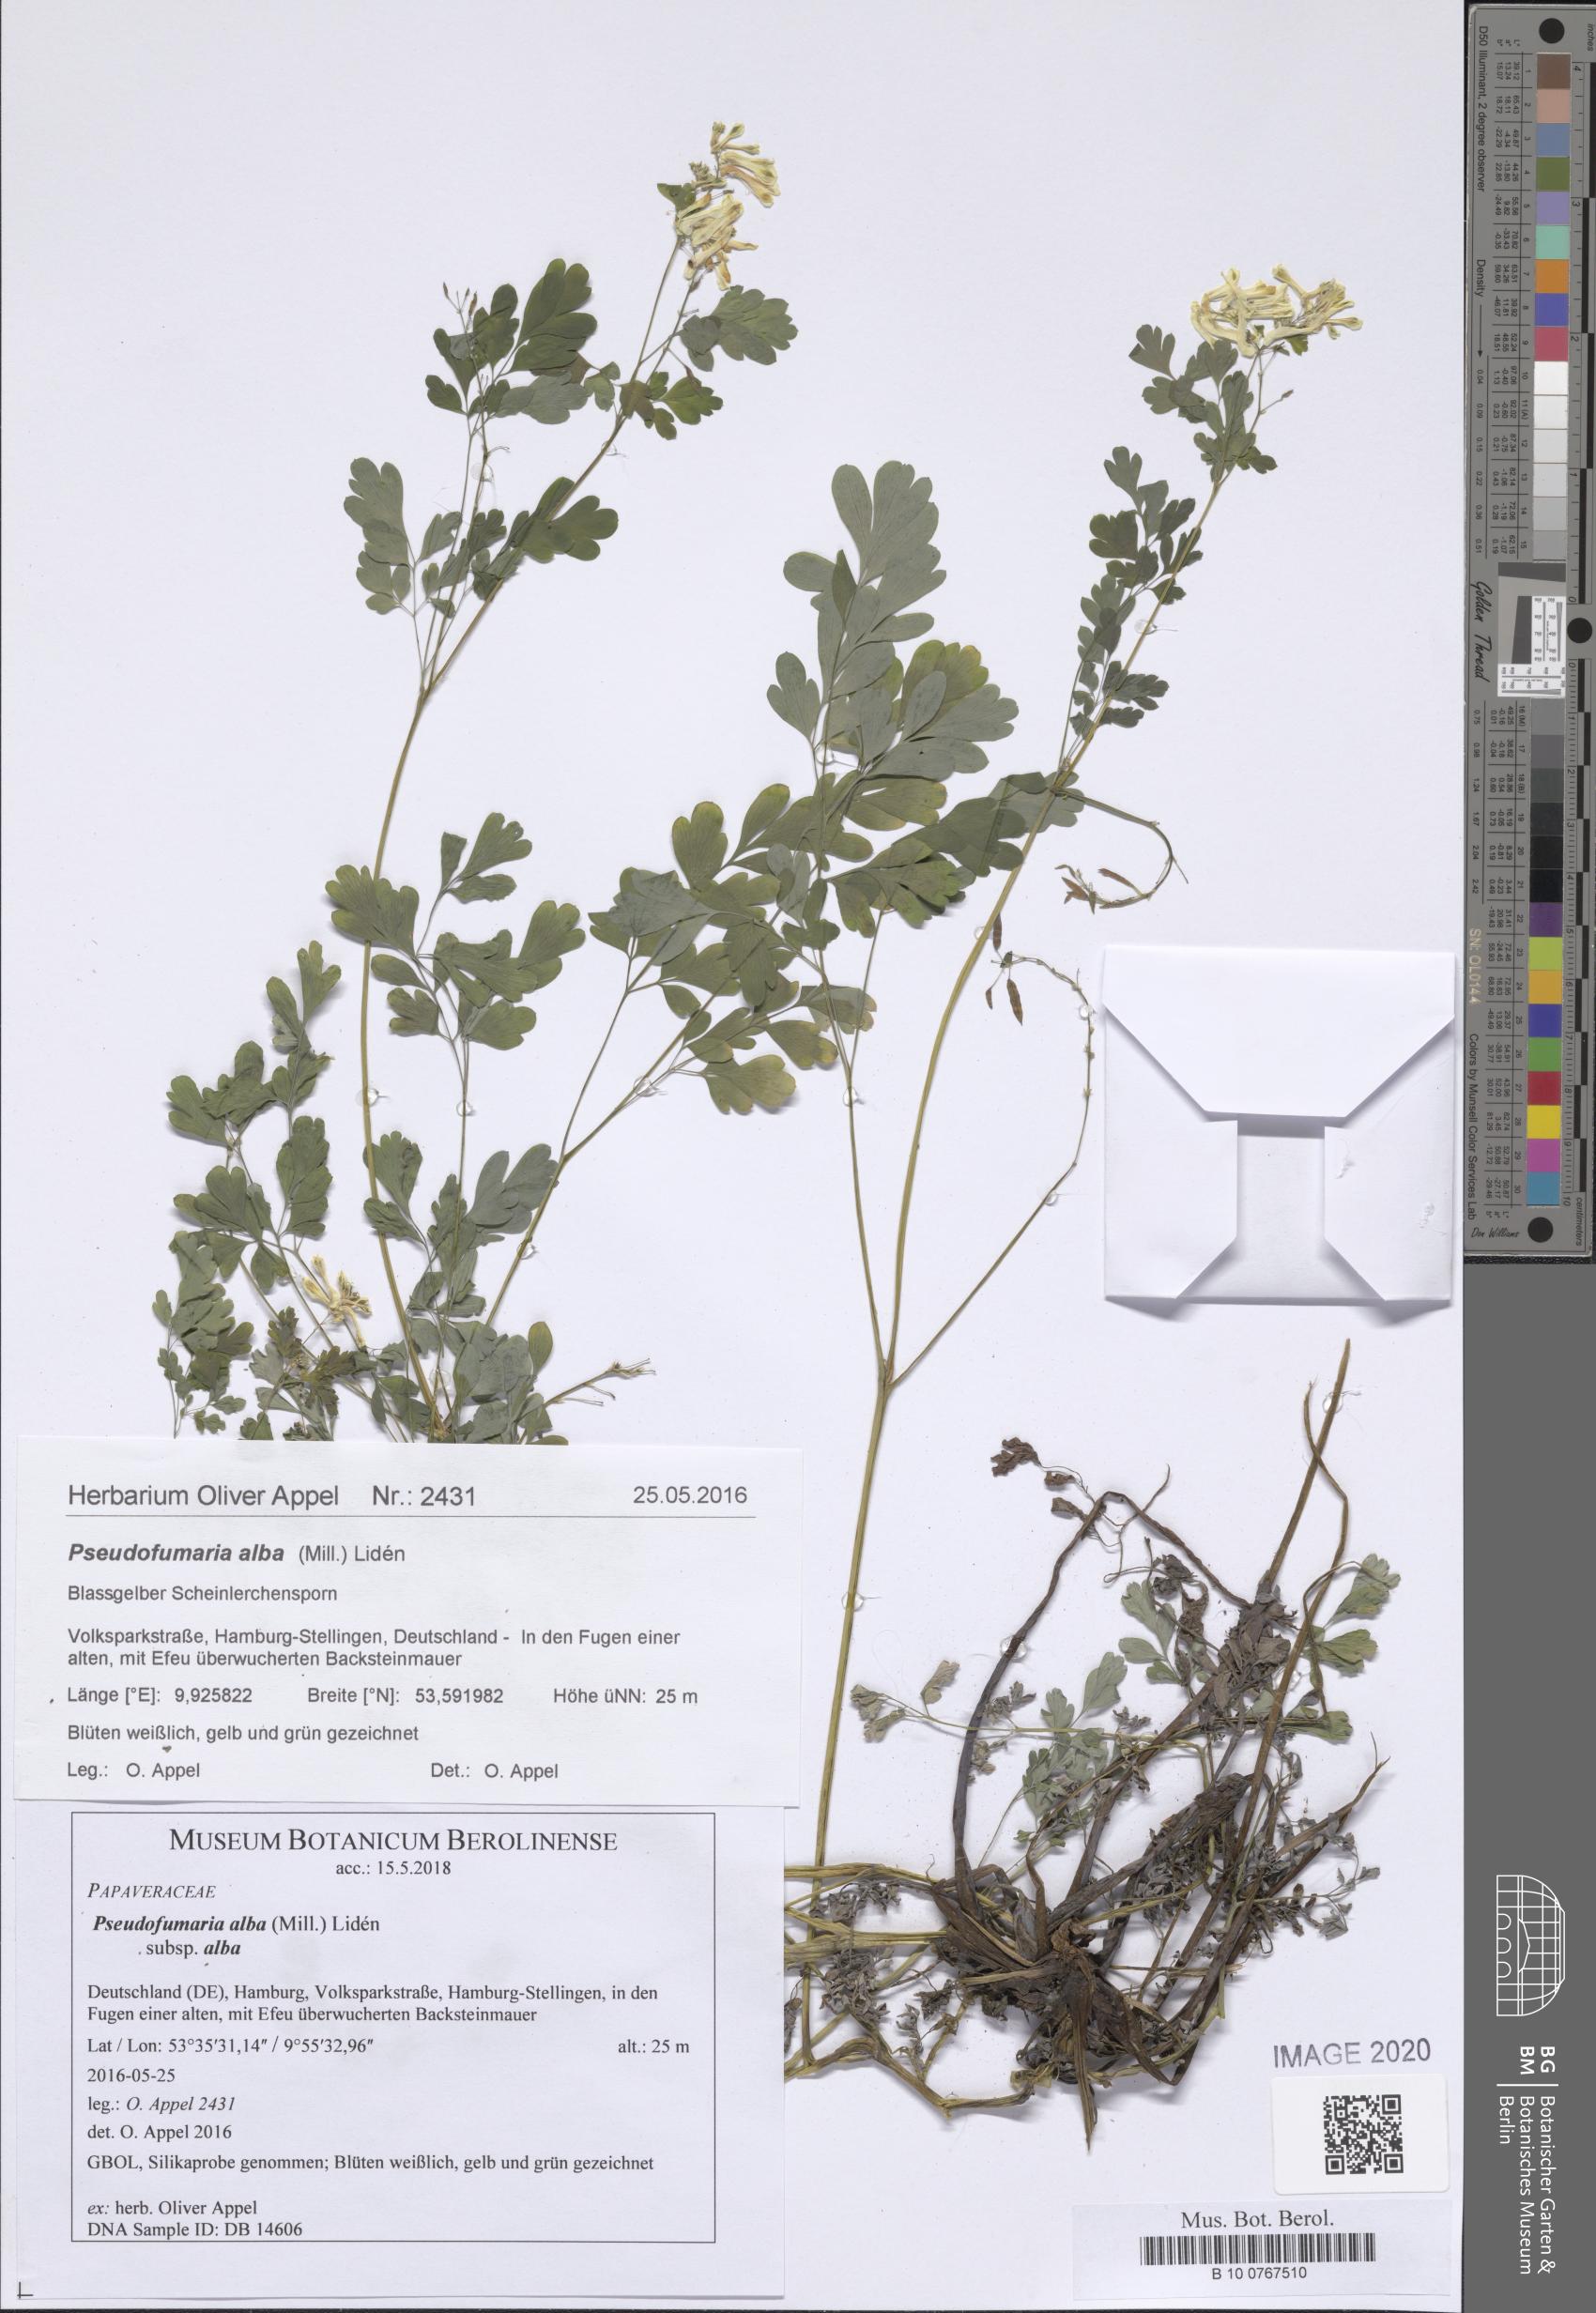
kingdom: Plantae
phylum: Tracheophyta
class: Magnoliopsida
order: Ranunculales
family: Papaveraceae
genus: Pseudofumaria
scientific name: Pseudofumaria alba
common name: Pale corydalis
